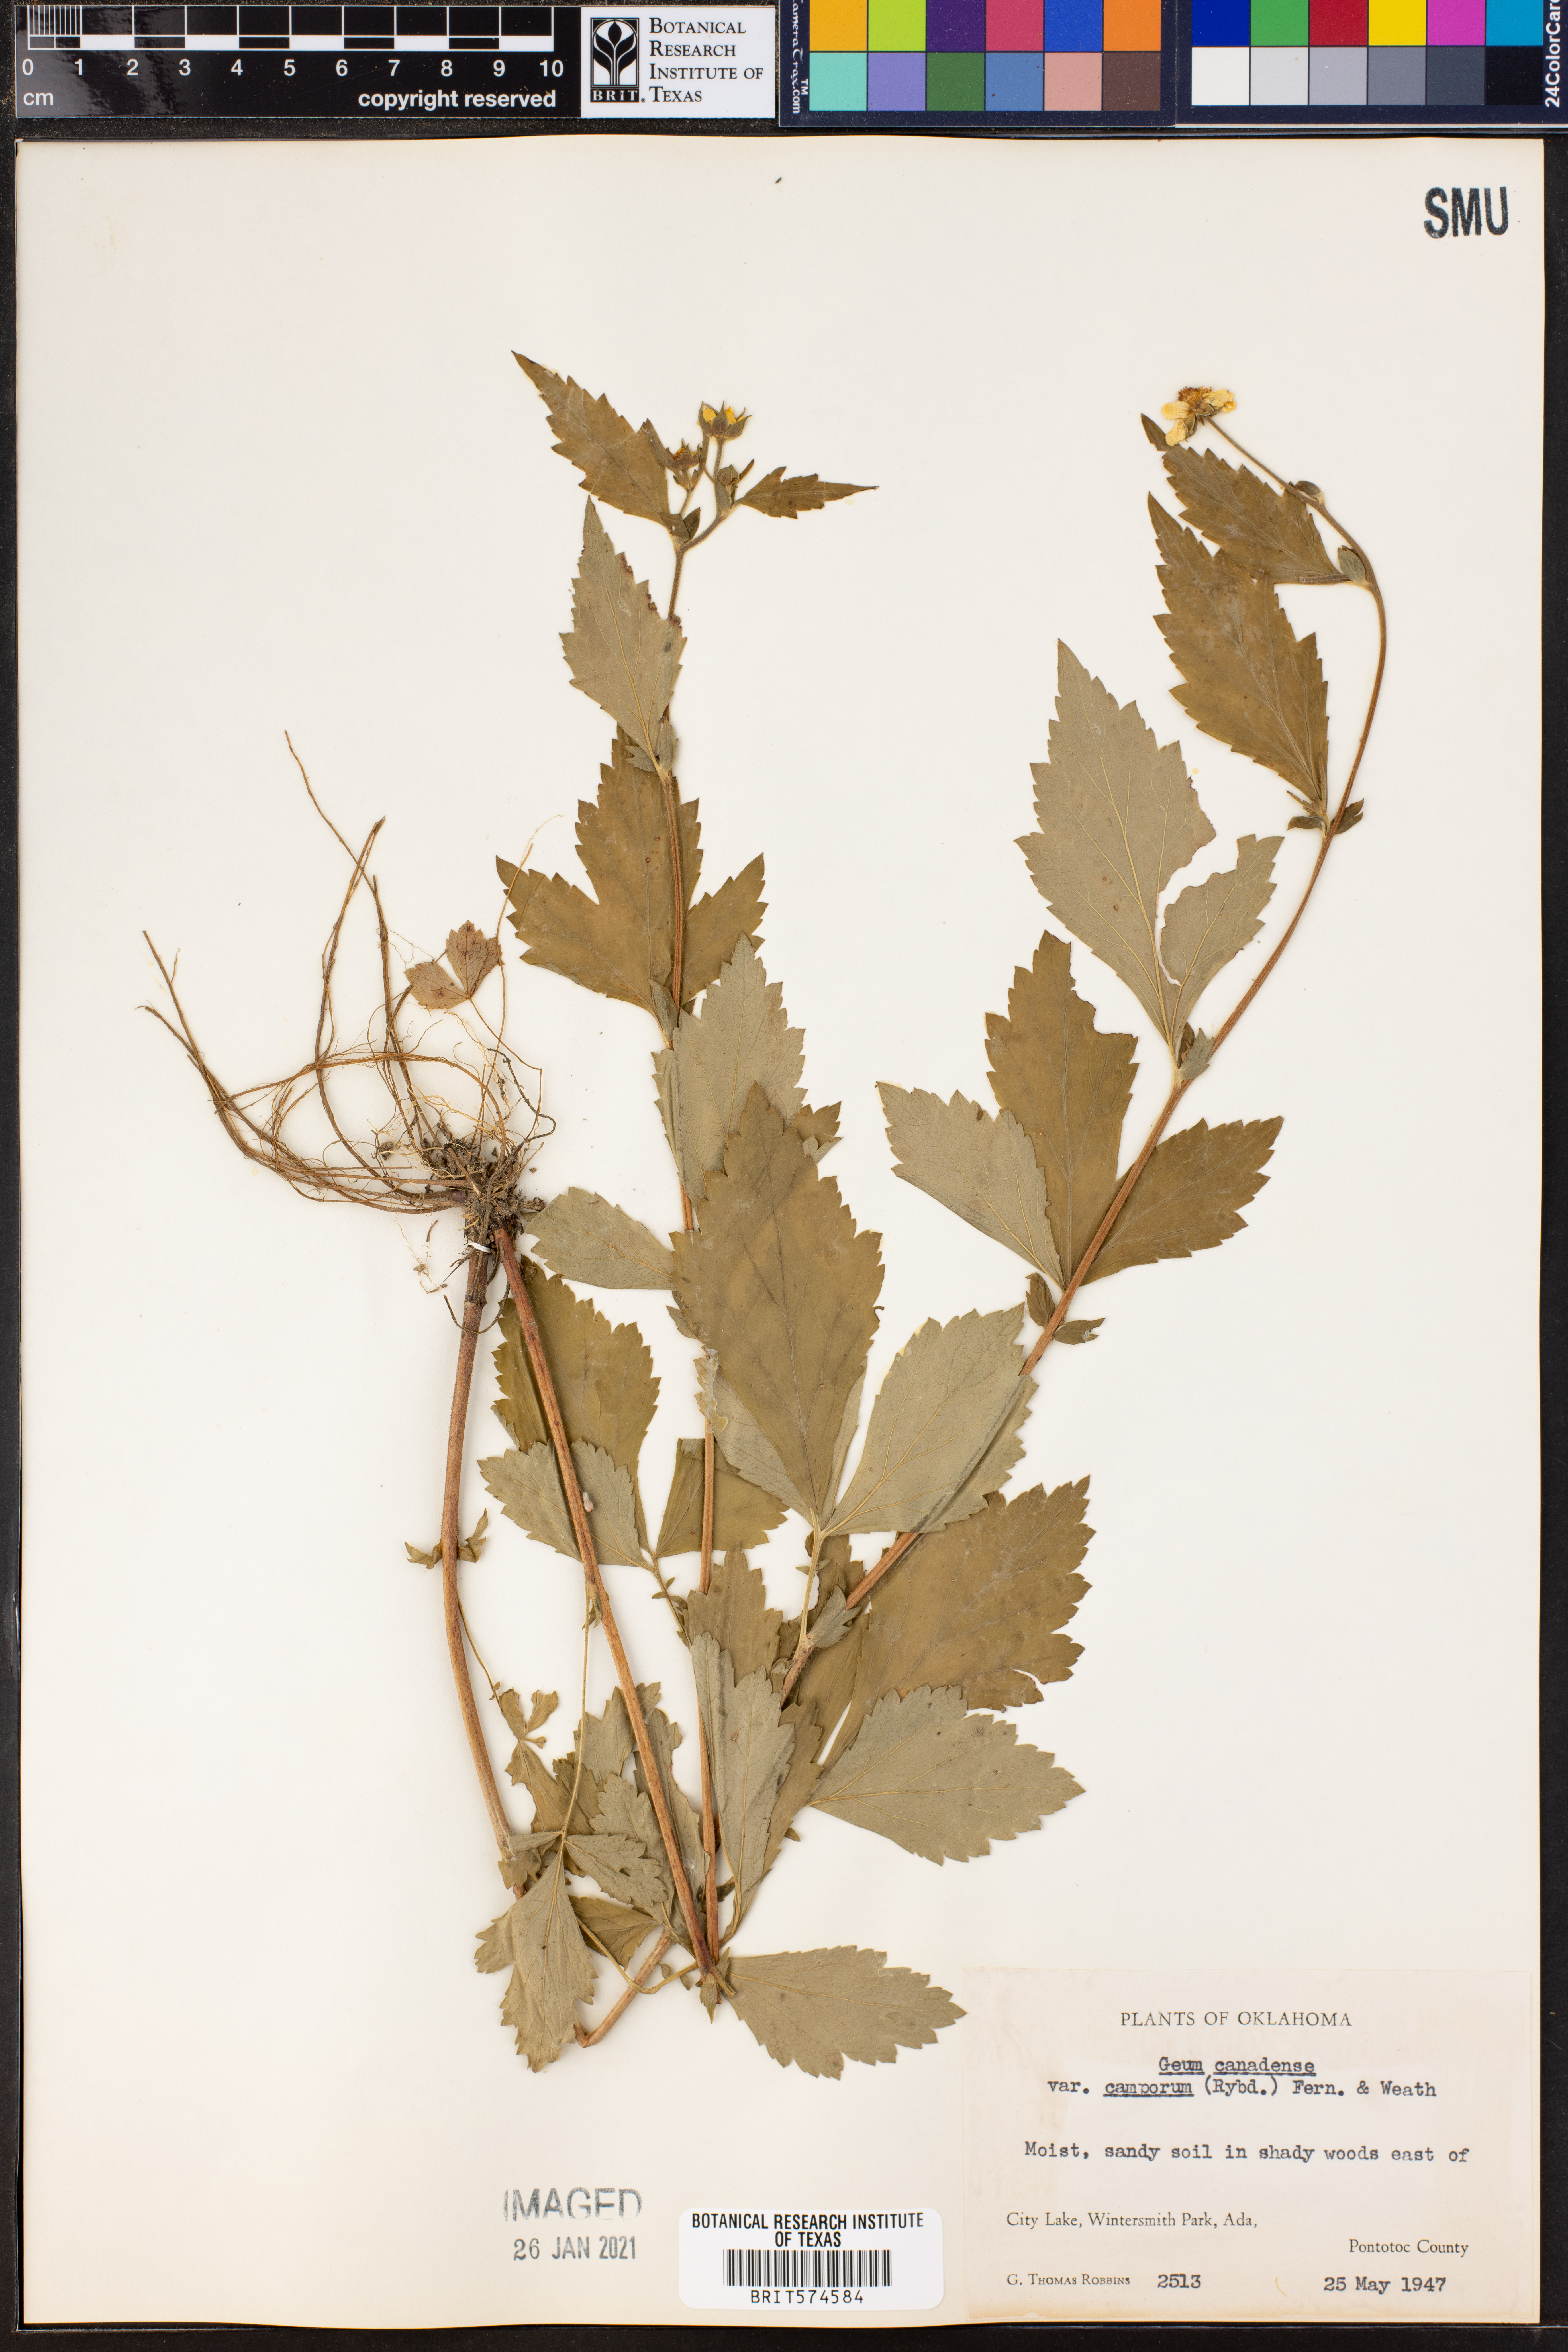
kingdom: Plantae
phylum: Tracheophyta
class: Magnoliopsida
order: Rosales
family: Rosaceae
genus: Geum
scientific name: Geum canadense
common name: White avens
